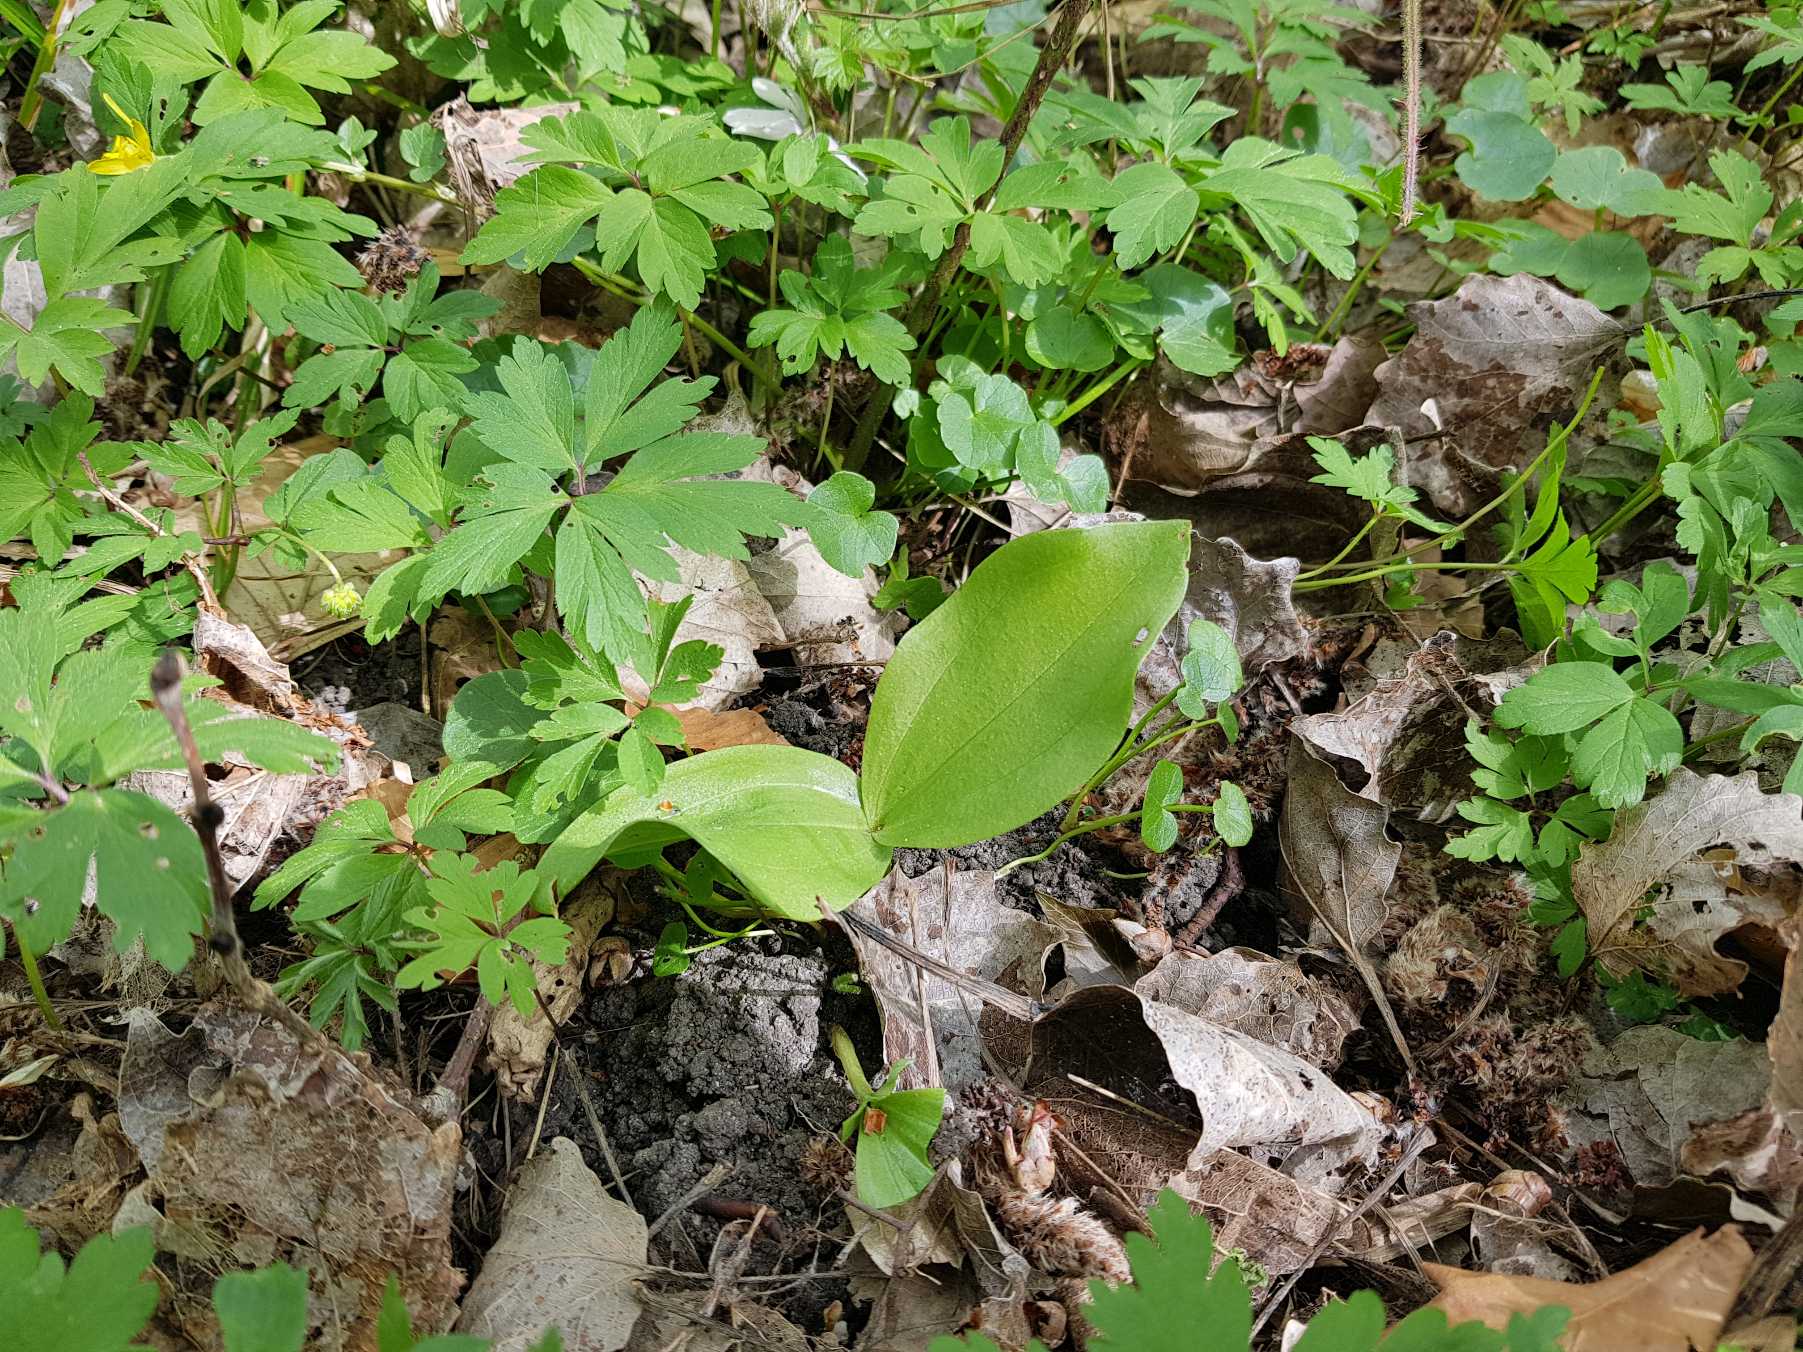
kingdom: Plantae
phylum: Tracheophyta
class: Liliopsida
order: Asparagales
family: Orchidaceae
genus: Neottia
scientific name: Neottia ovata
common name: Ægbladet fliglæbe
